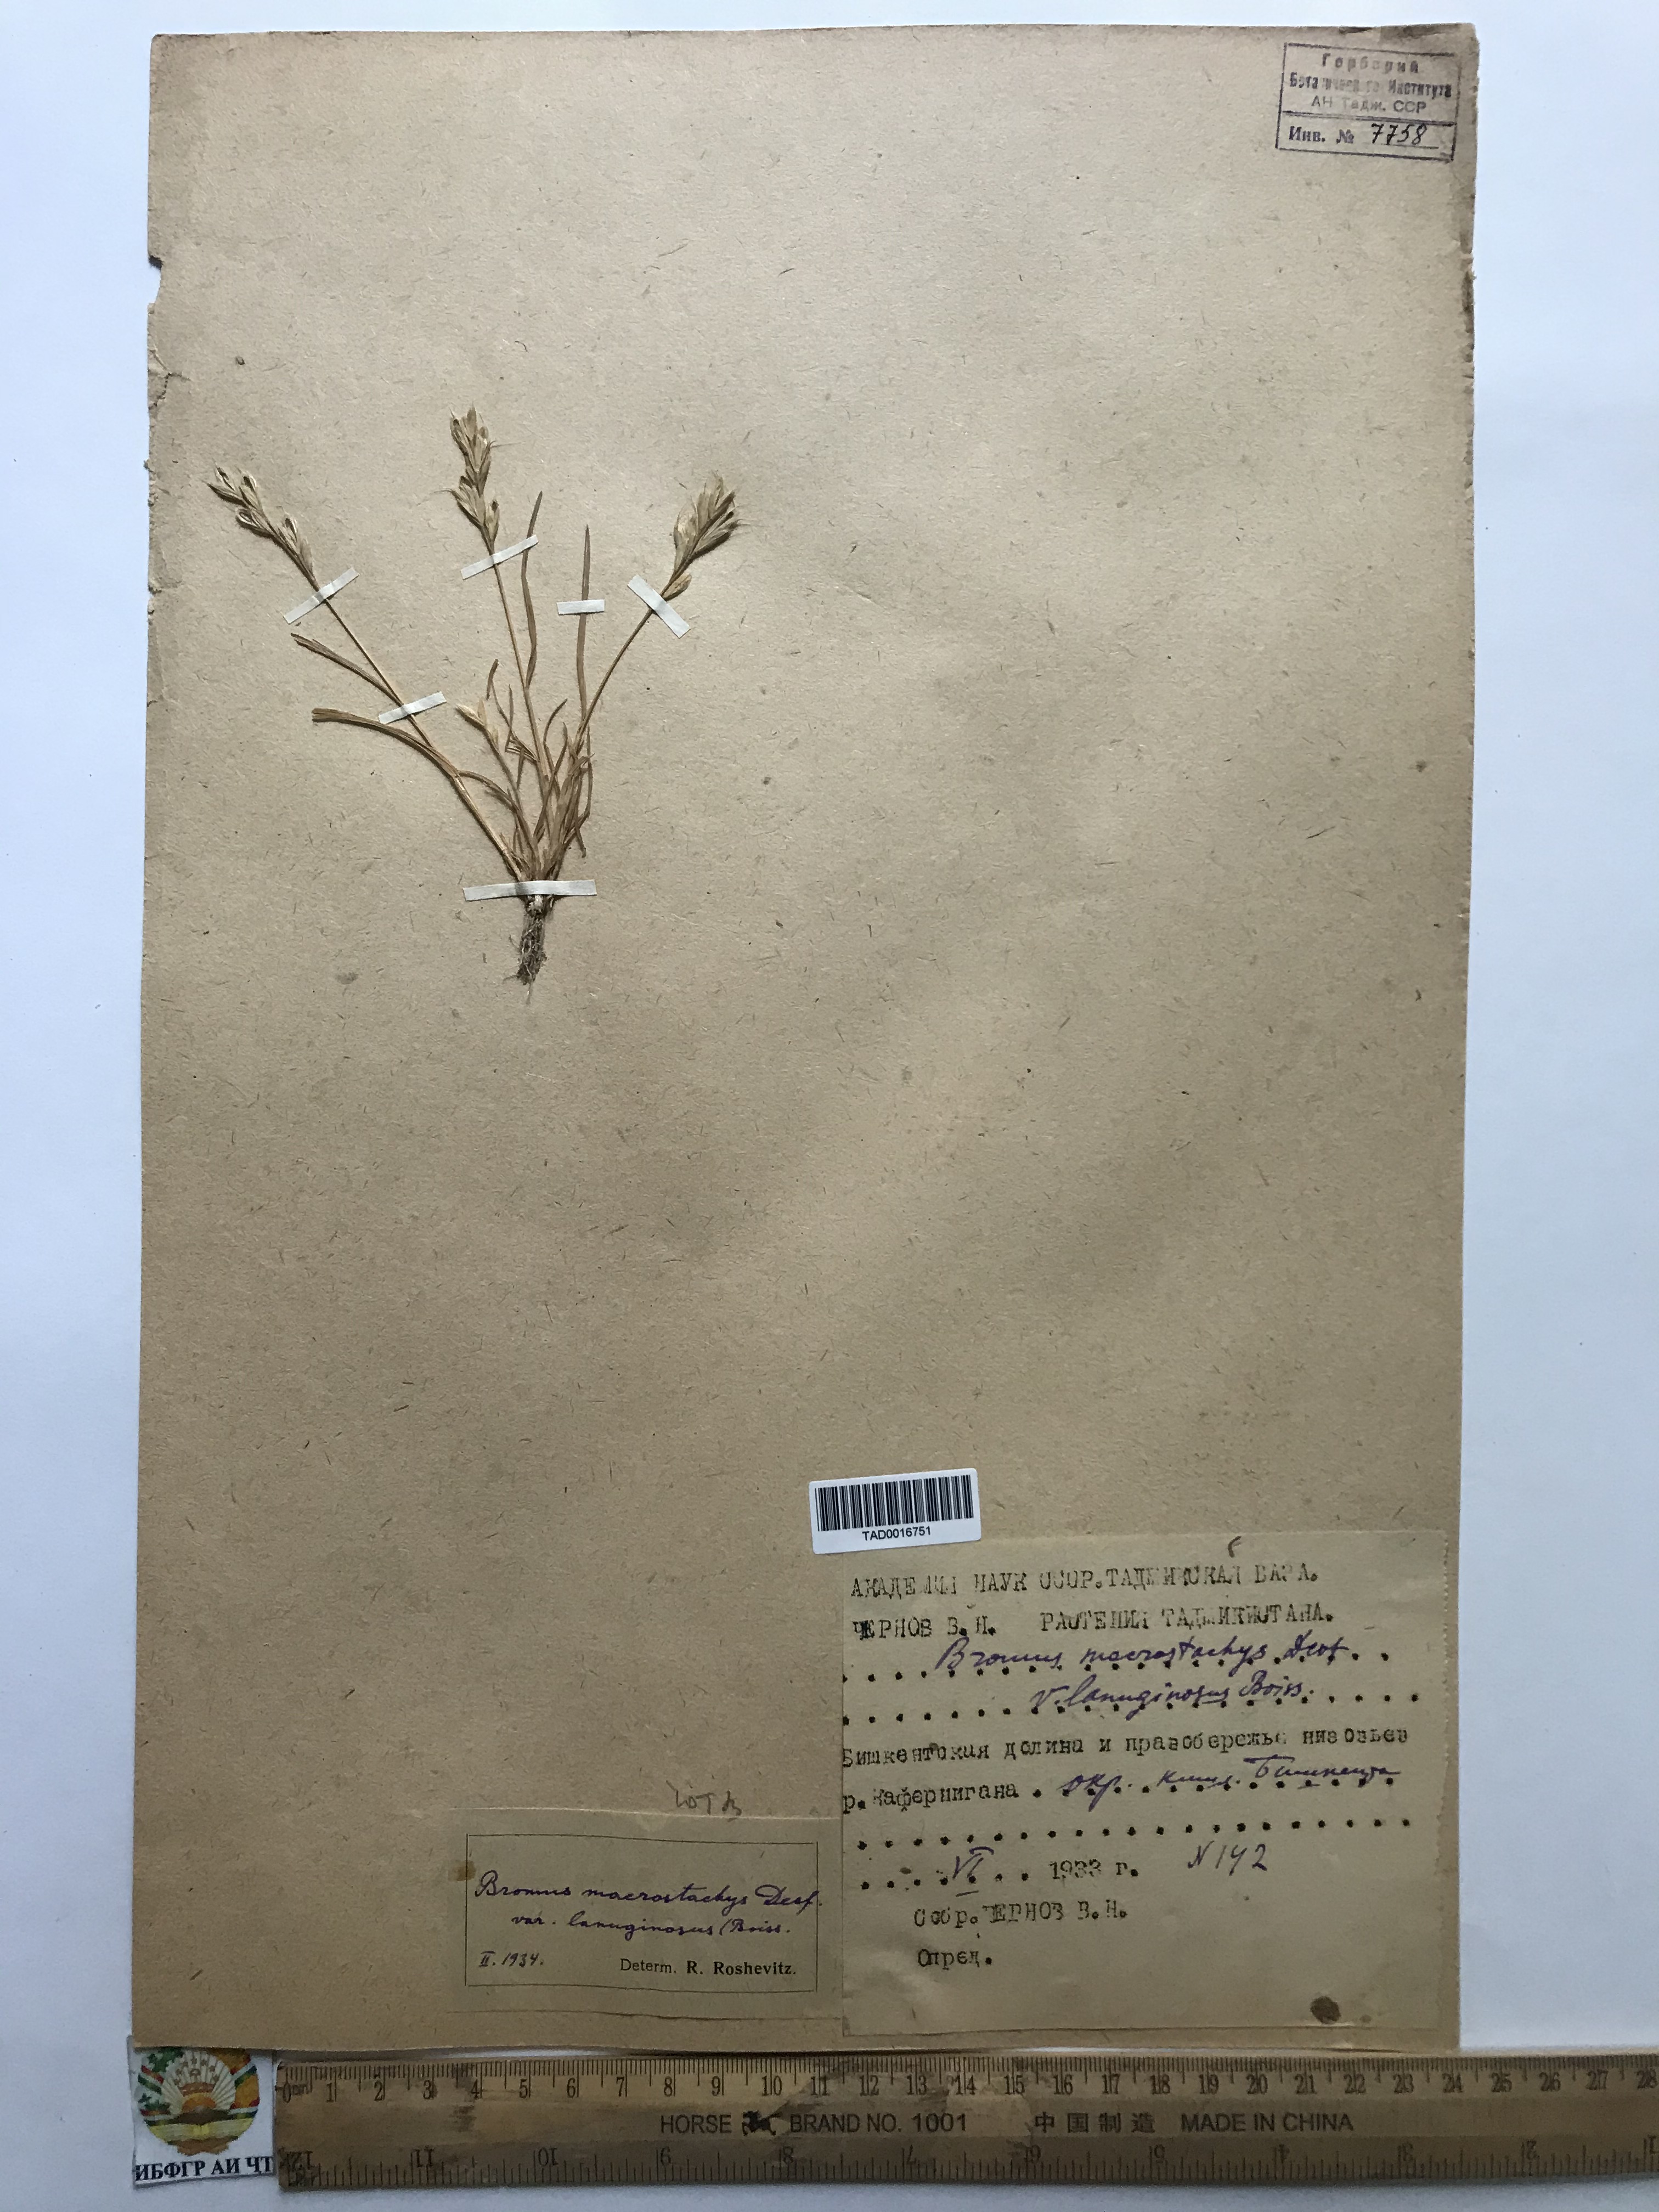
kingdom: Plantae
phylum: Tracheophyta
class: Liliopsida
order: Poales
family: Poaceae
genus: Bromus
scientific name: Bromus lanceolatus
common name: Mediterranean brome
